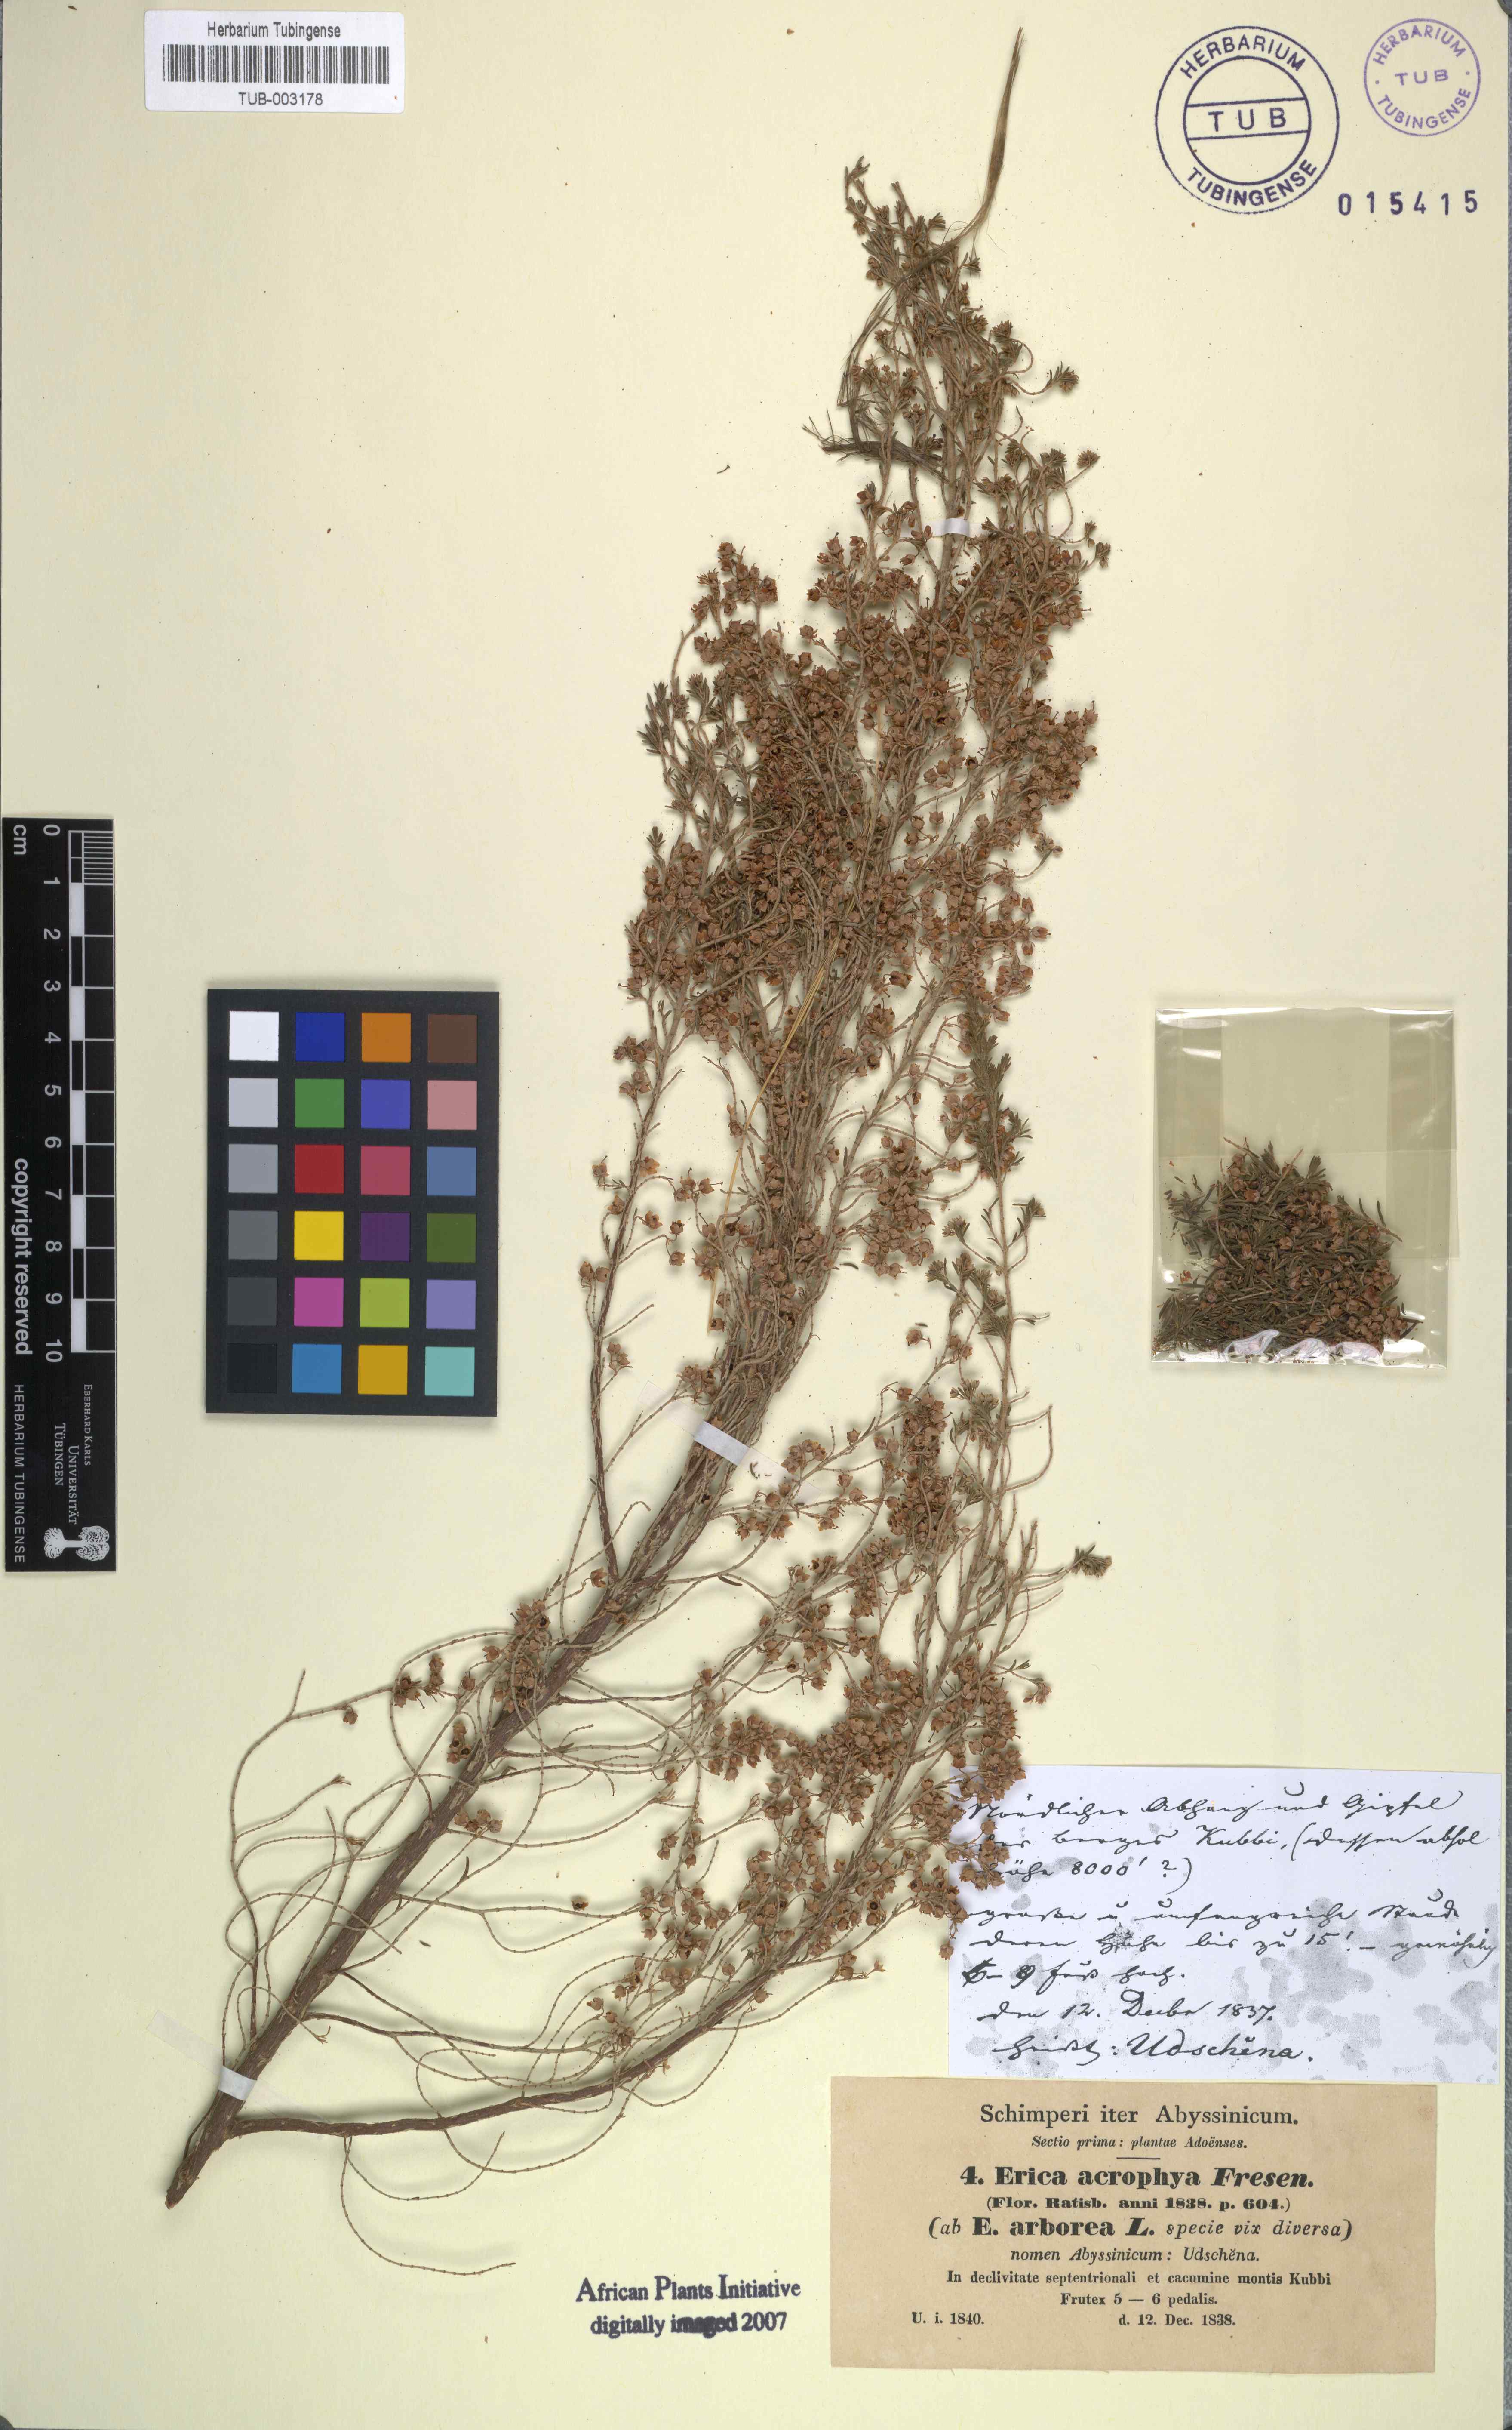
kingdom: Plantae
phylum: Tracheophyta
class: Magnoliopsida
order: Ericales
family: Ericaceae
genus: Erica
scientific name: Erica arborea
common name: Tree heath
